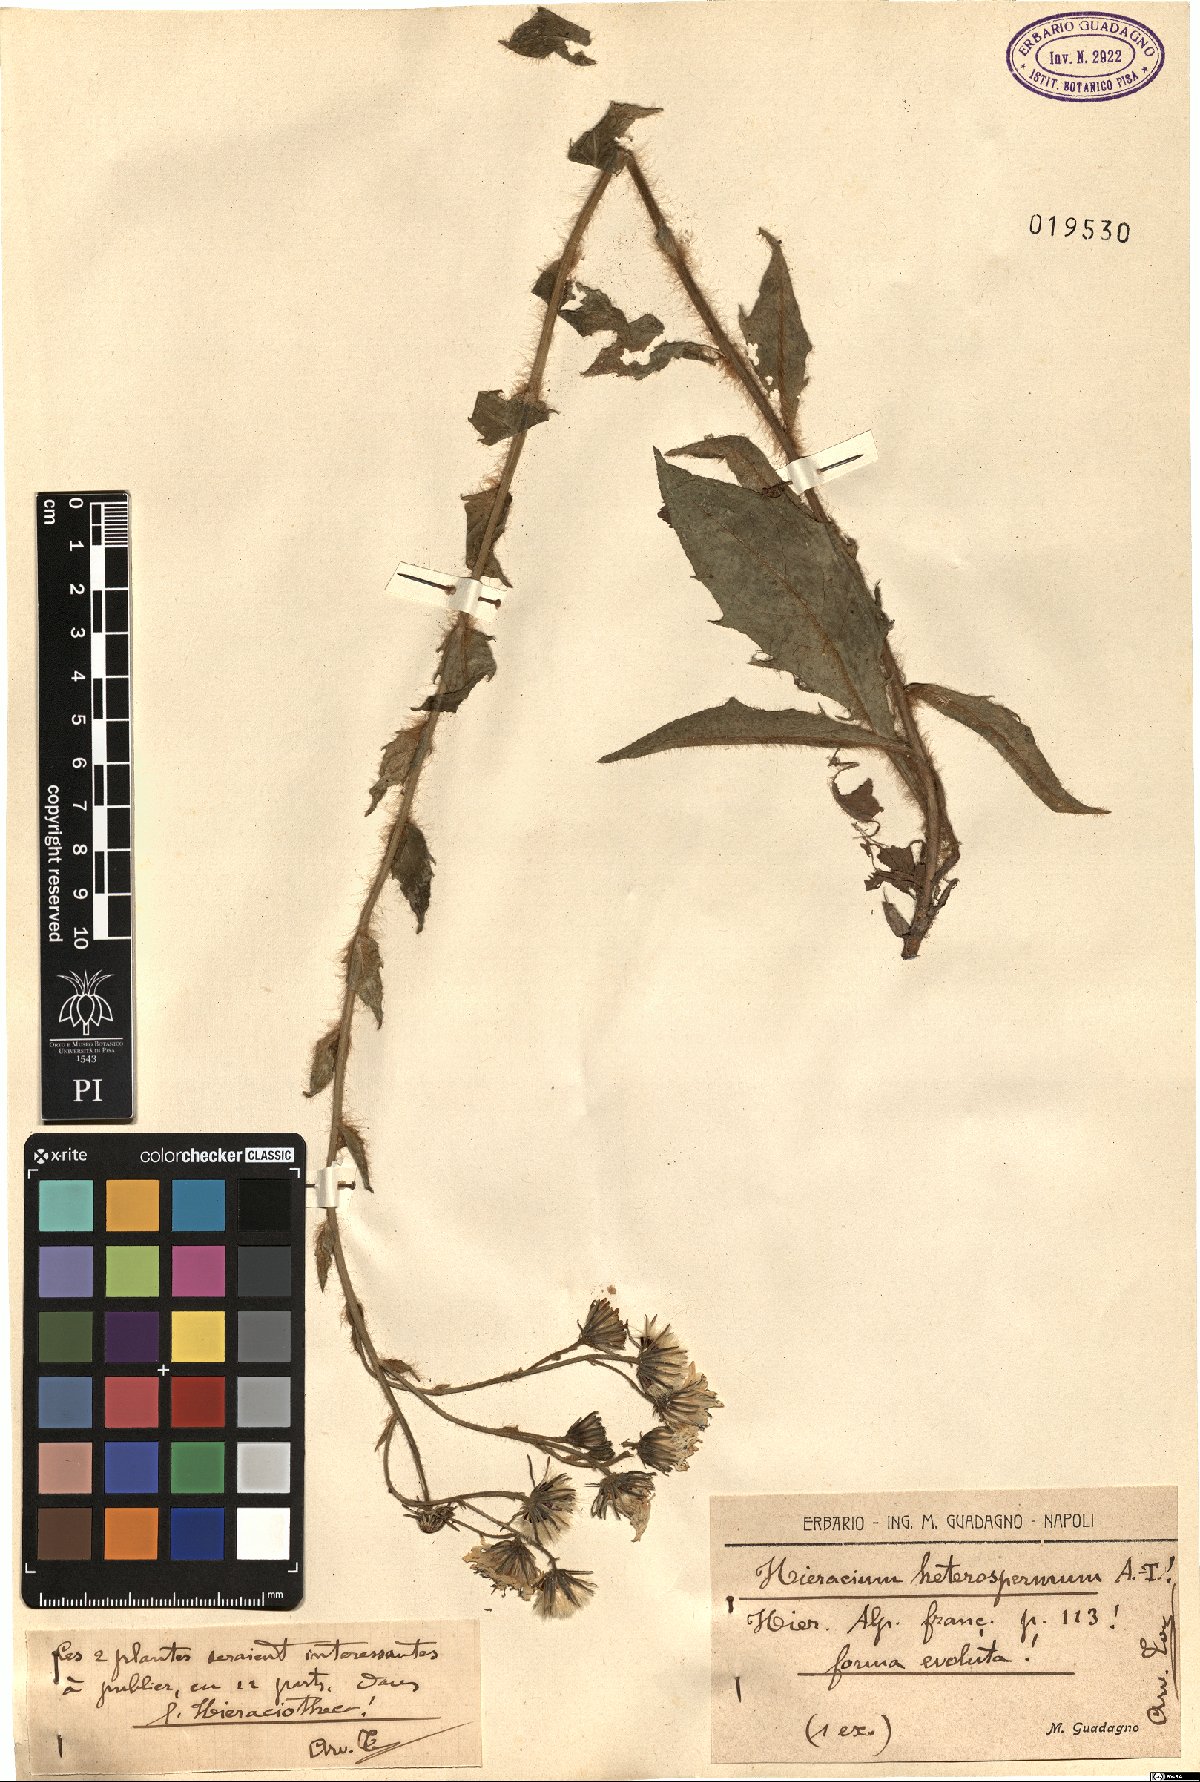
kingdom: Plantae
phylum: Tracheophyta
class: Magnoliopsida
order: Asterales
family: Asteraceae
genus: Hieracium
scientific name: Hieracium racemosum
